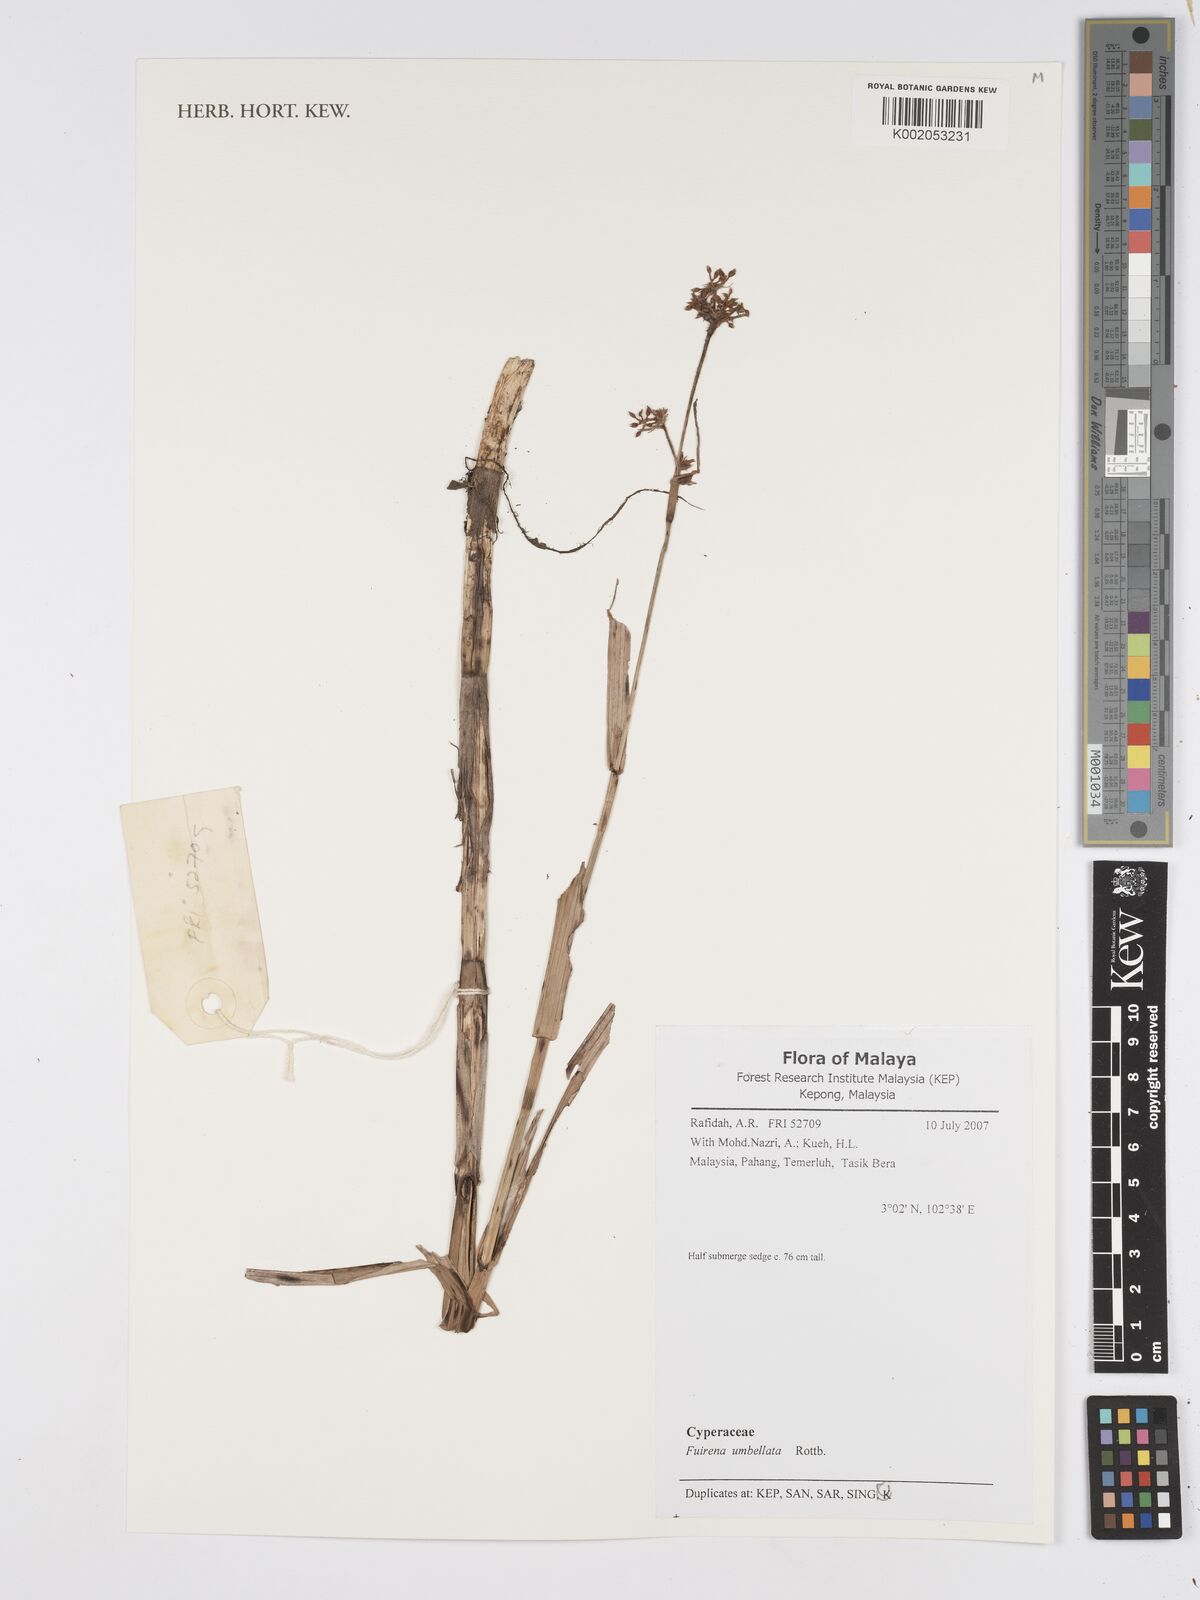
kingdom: Plantae
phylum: Tracheophyta
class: Liliopsida
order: Poales
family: Cyperaceae
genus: Fuirena
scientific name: Fuirena umbellata
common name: Yefen
